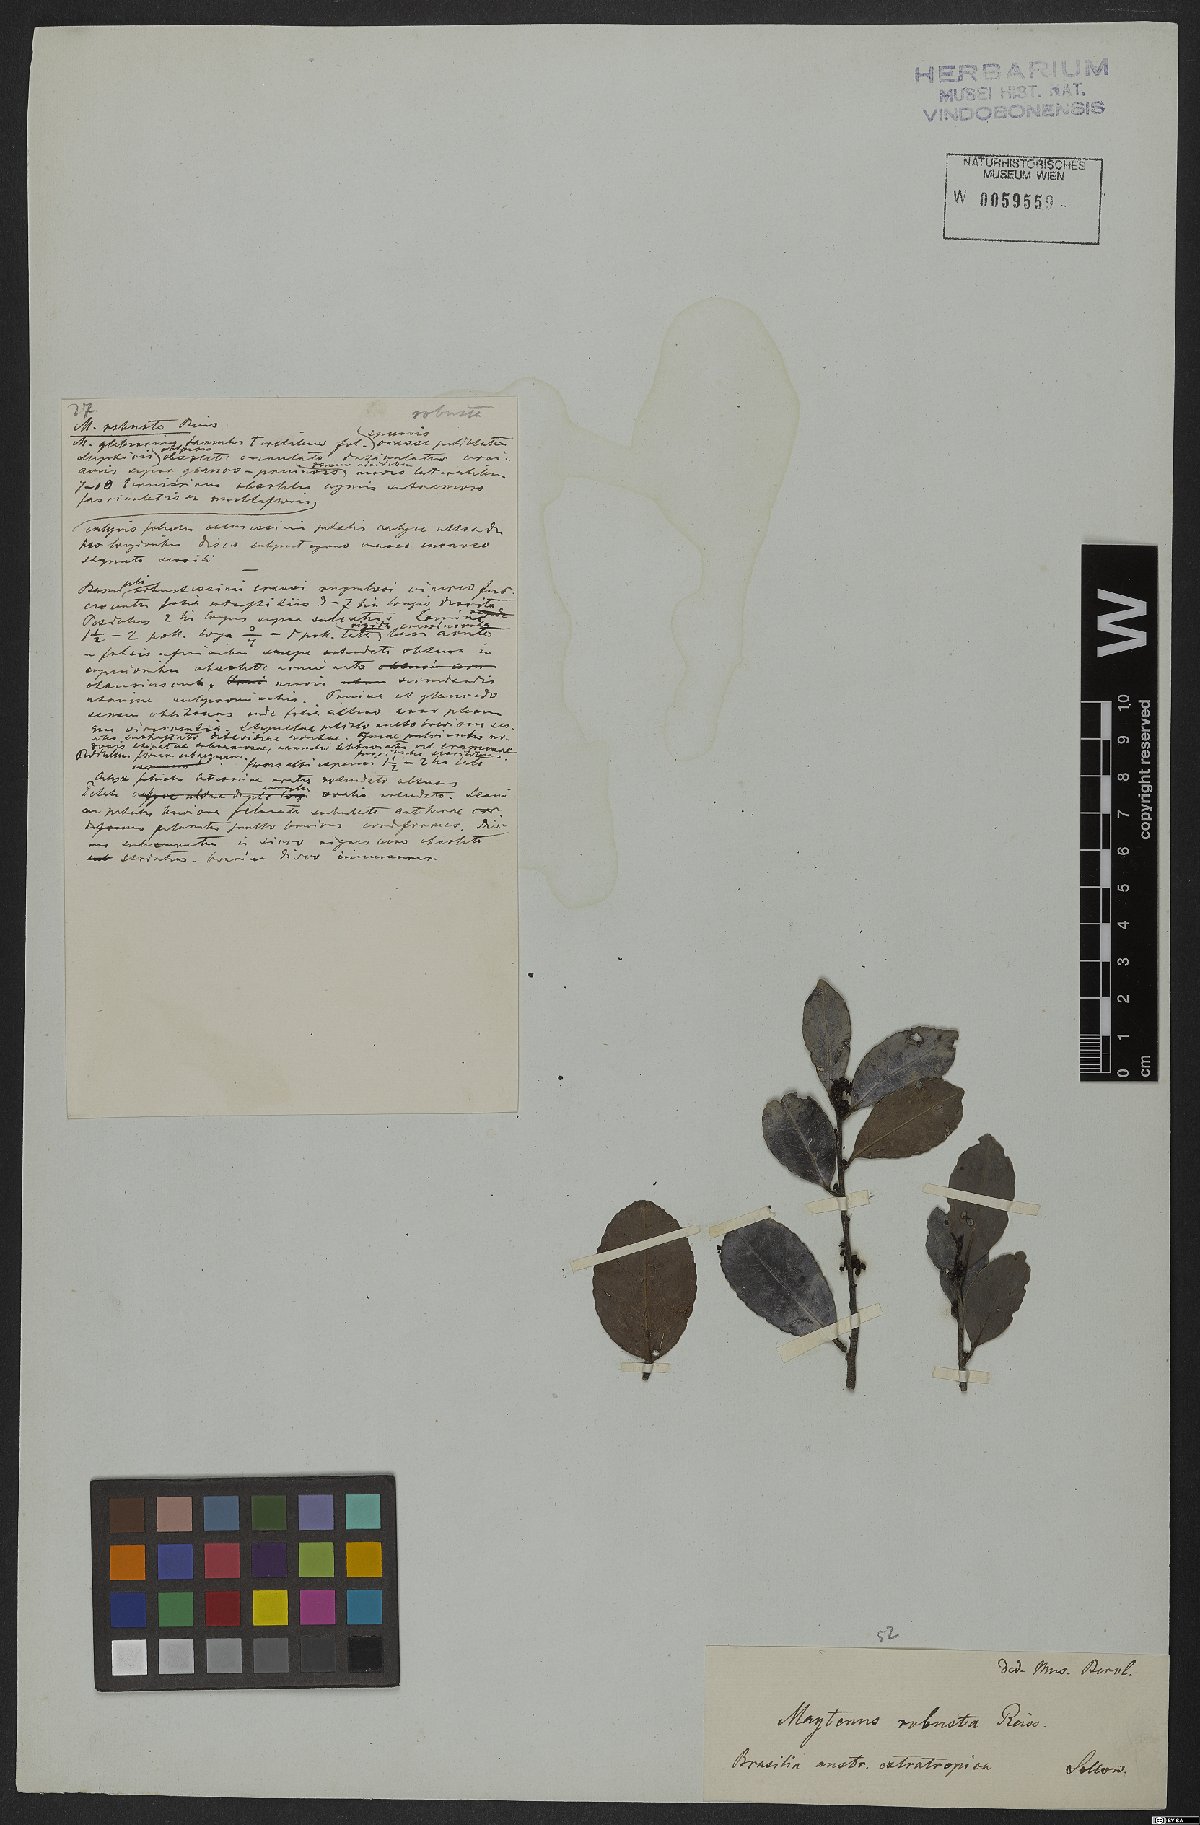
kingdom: Plantae
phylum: Tracheophyta
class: Magnoliopsida
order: Celastrales
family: Celastraceae
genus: Monteverdia
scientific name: Monteverdia robusta
